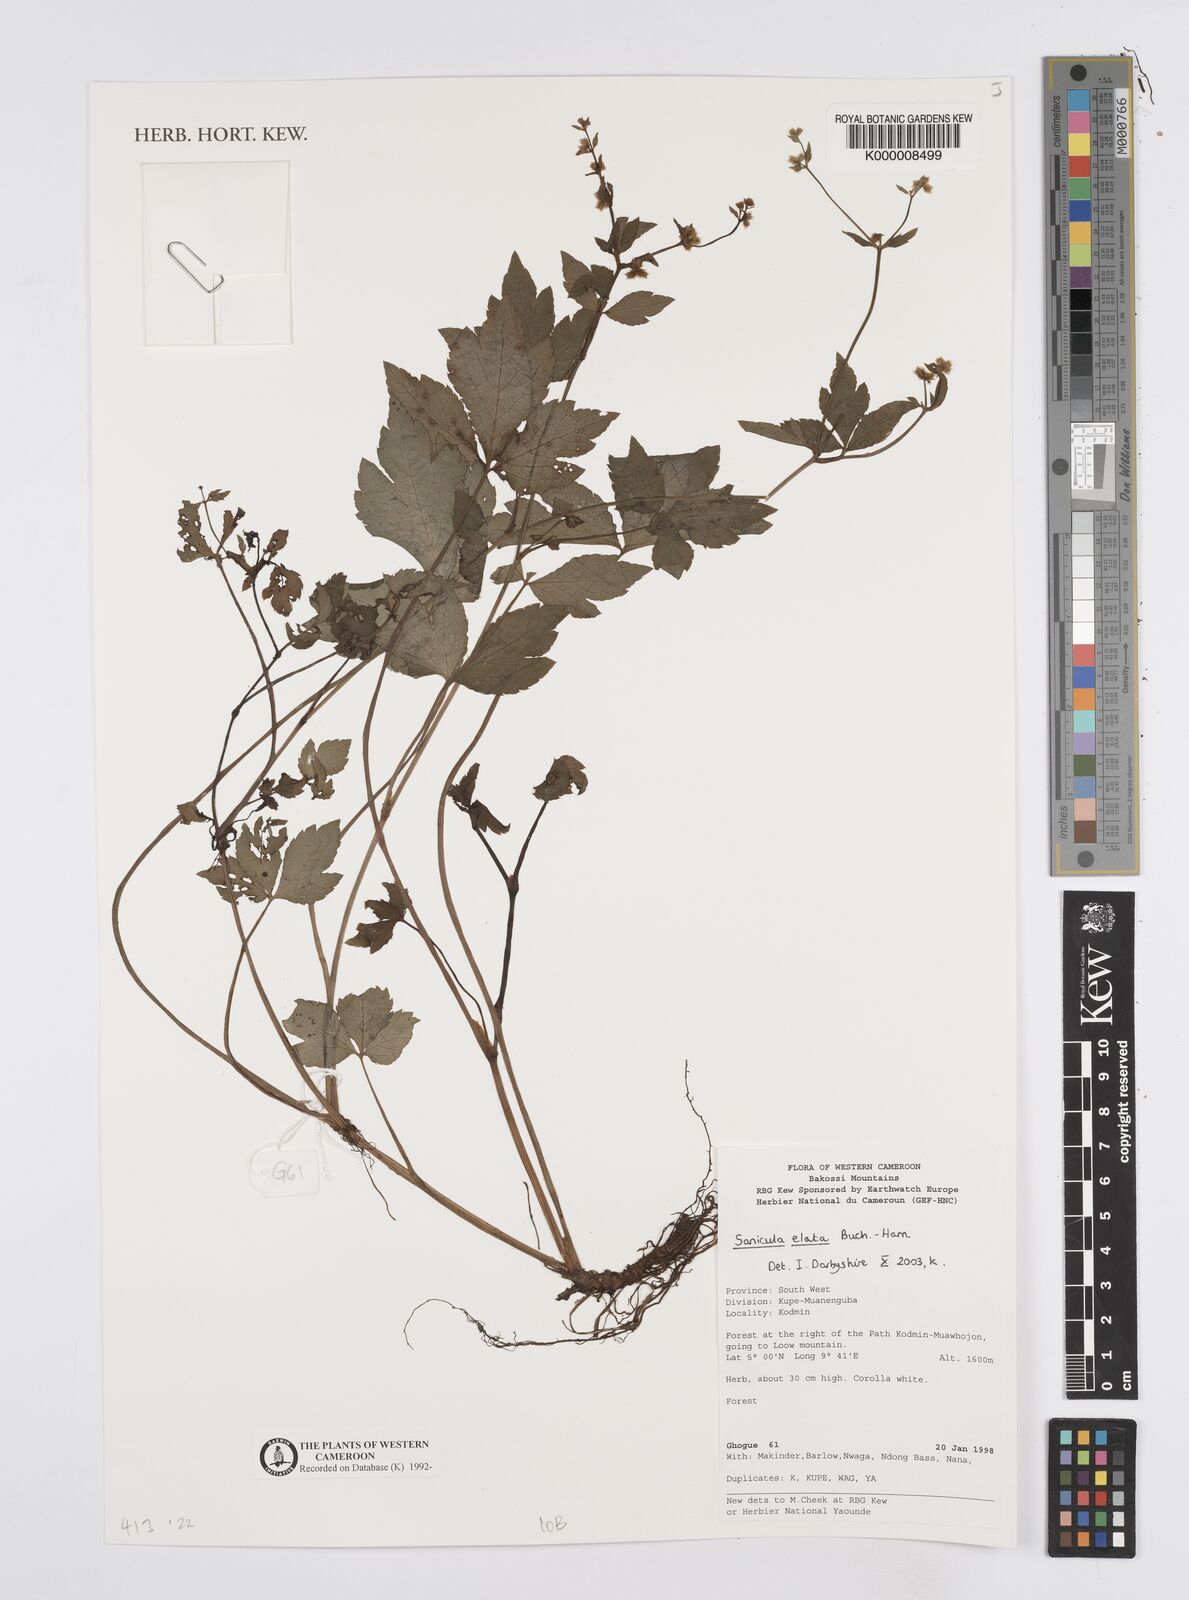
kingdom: Plantae
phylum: Tracheophyta
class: Magnoliopsida
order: Apiales
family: Apiaceae
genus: Sanicula
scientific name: Sanicula
